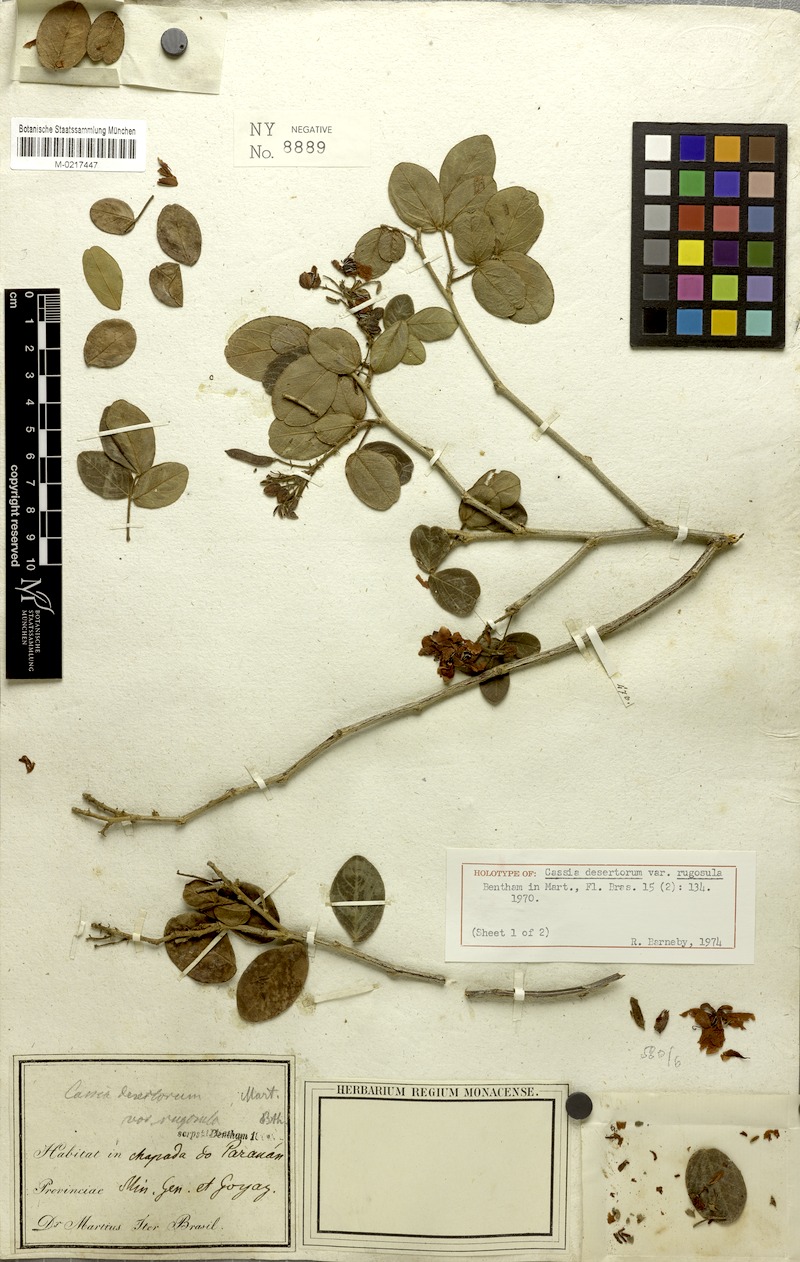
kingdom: Plantae
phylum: Tracheophyta
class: Magnoliopsida
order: Fabales
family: Fabaceae
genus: Chamaecrista
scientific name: Chamaecrista rugosula
